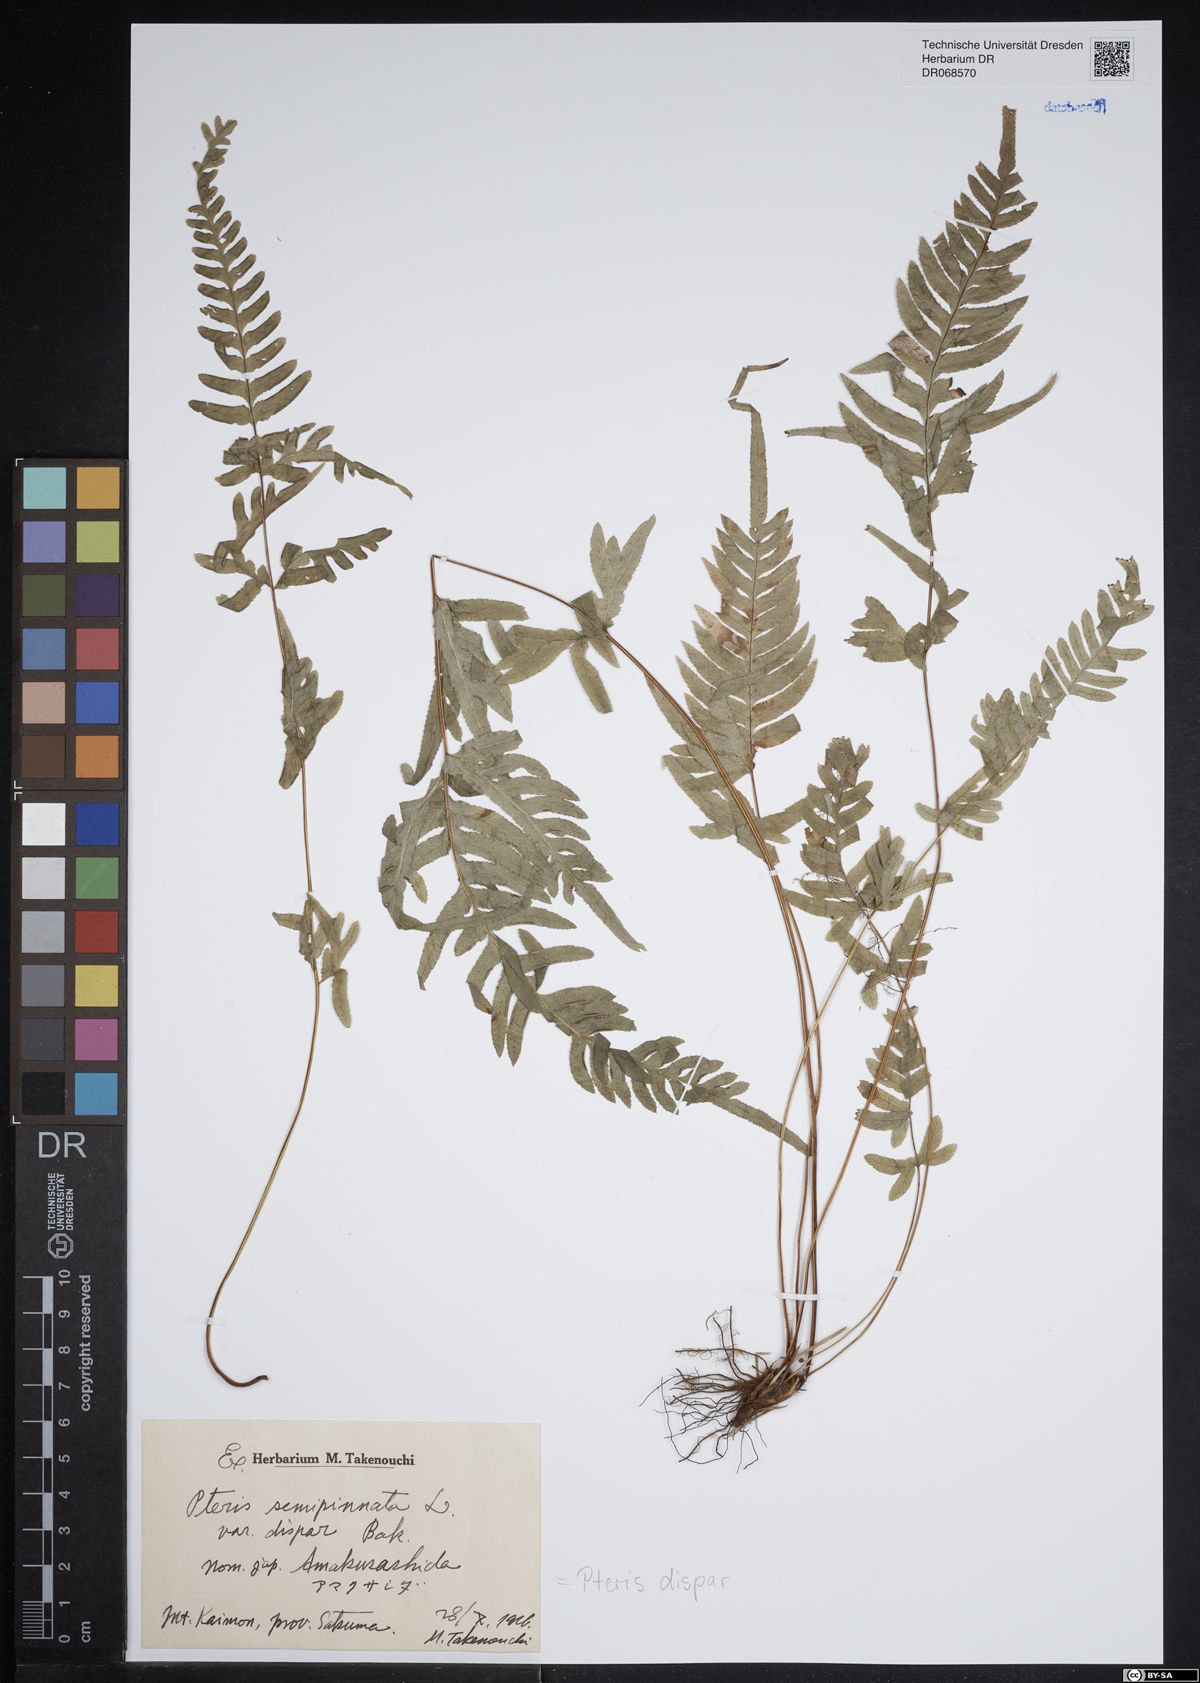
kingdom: Plantae
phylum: Tracheophyta
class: Polypodiopsida
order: Polypodiales
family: Pteridaceae
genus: Pteris
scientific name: Pteris dispar
